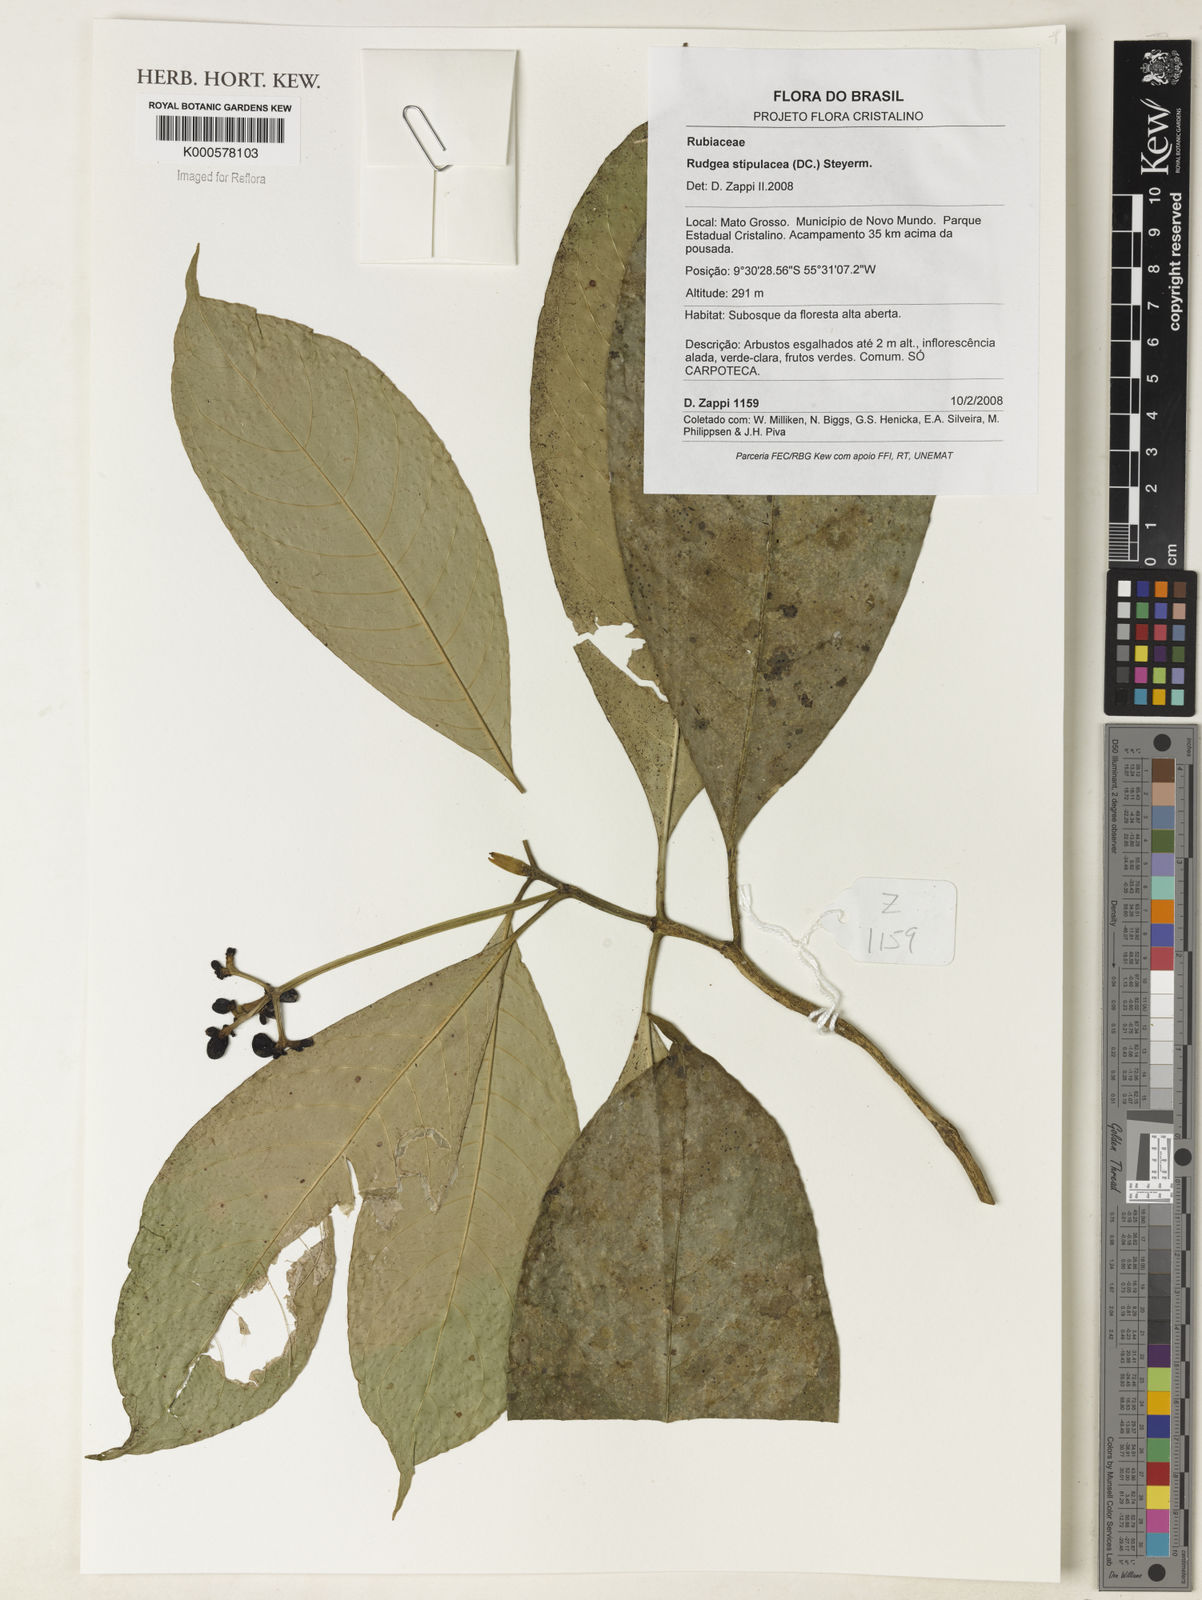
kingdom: Plantae
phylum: Tracheophyta
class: Magnoliopsida
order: Gentianales
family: Rubiaceae
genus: Rudgea
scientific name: Rudgea stipulacea
